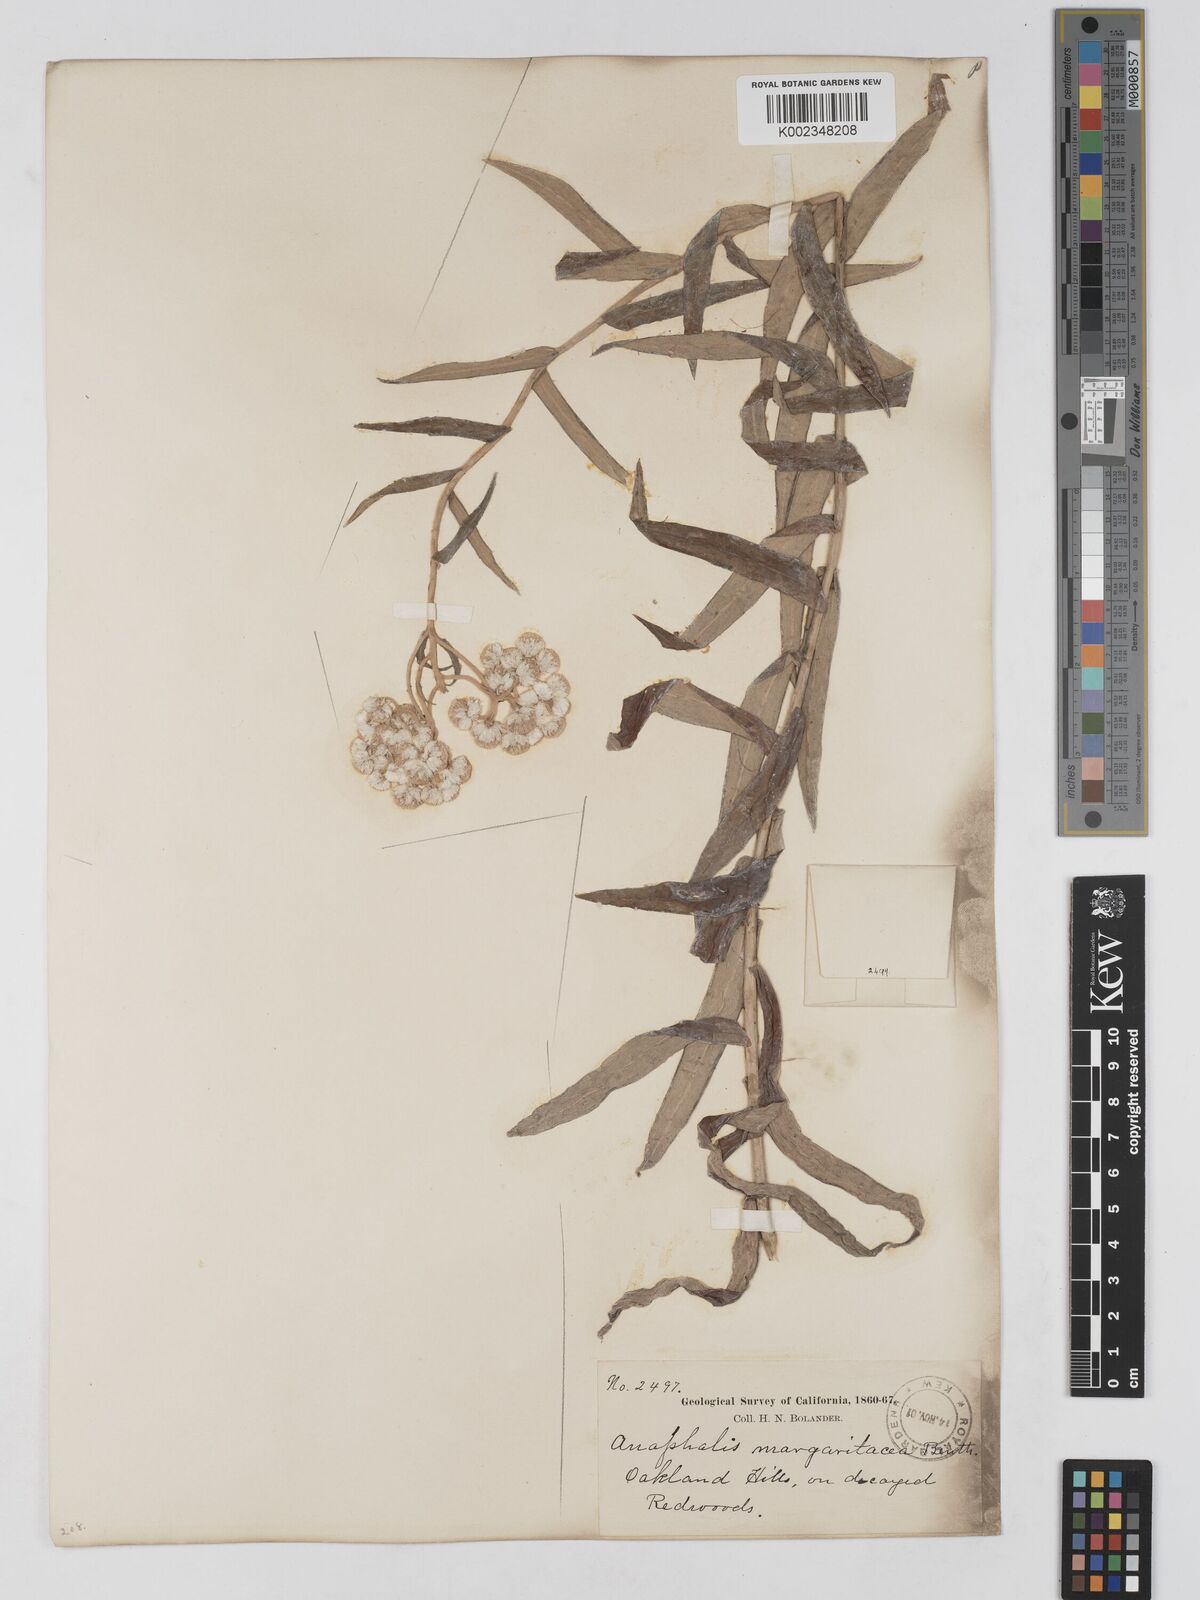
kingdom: Plantae
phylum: Tracheophyta
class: Magnoliopsida
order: Asterales
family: Asteraceae
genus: Anaphalis
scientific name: Anaphalis margaritacea
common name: Pearly everlasting
